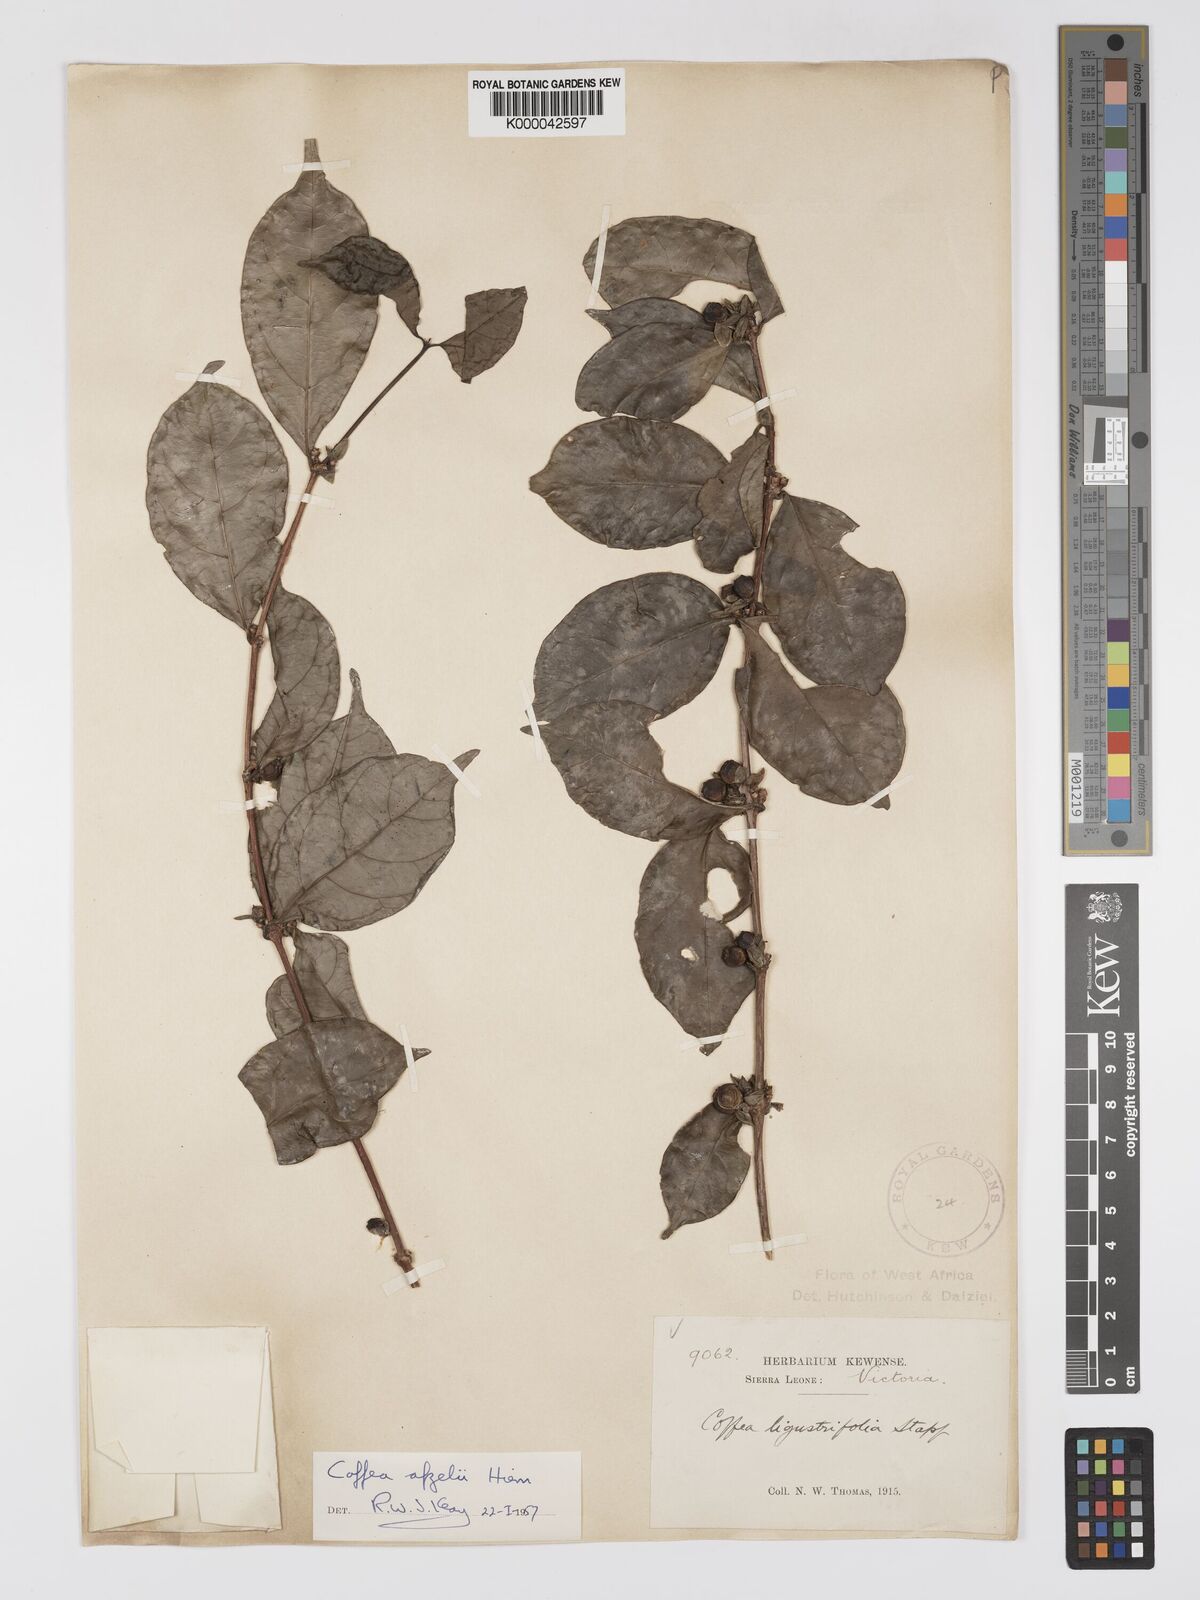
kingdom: Plantae
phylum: Tracheophyta
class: Magnoliopsida
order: Gentianales
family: Rubiaceae
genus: Argocoffeopsis
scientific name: Argocoffeopsis afzelii
